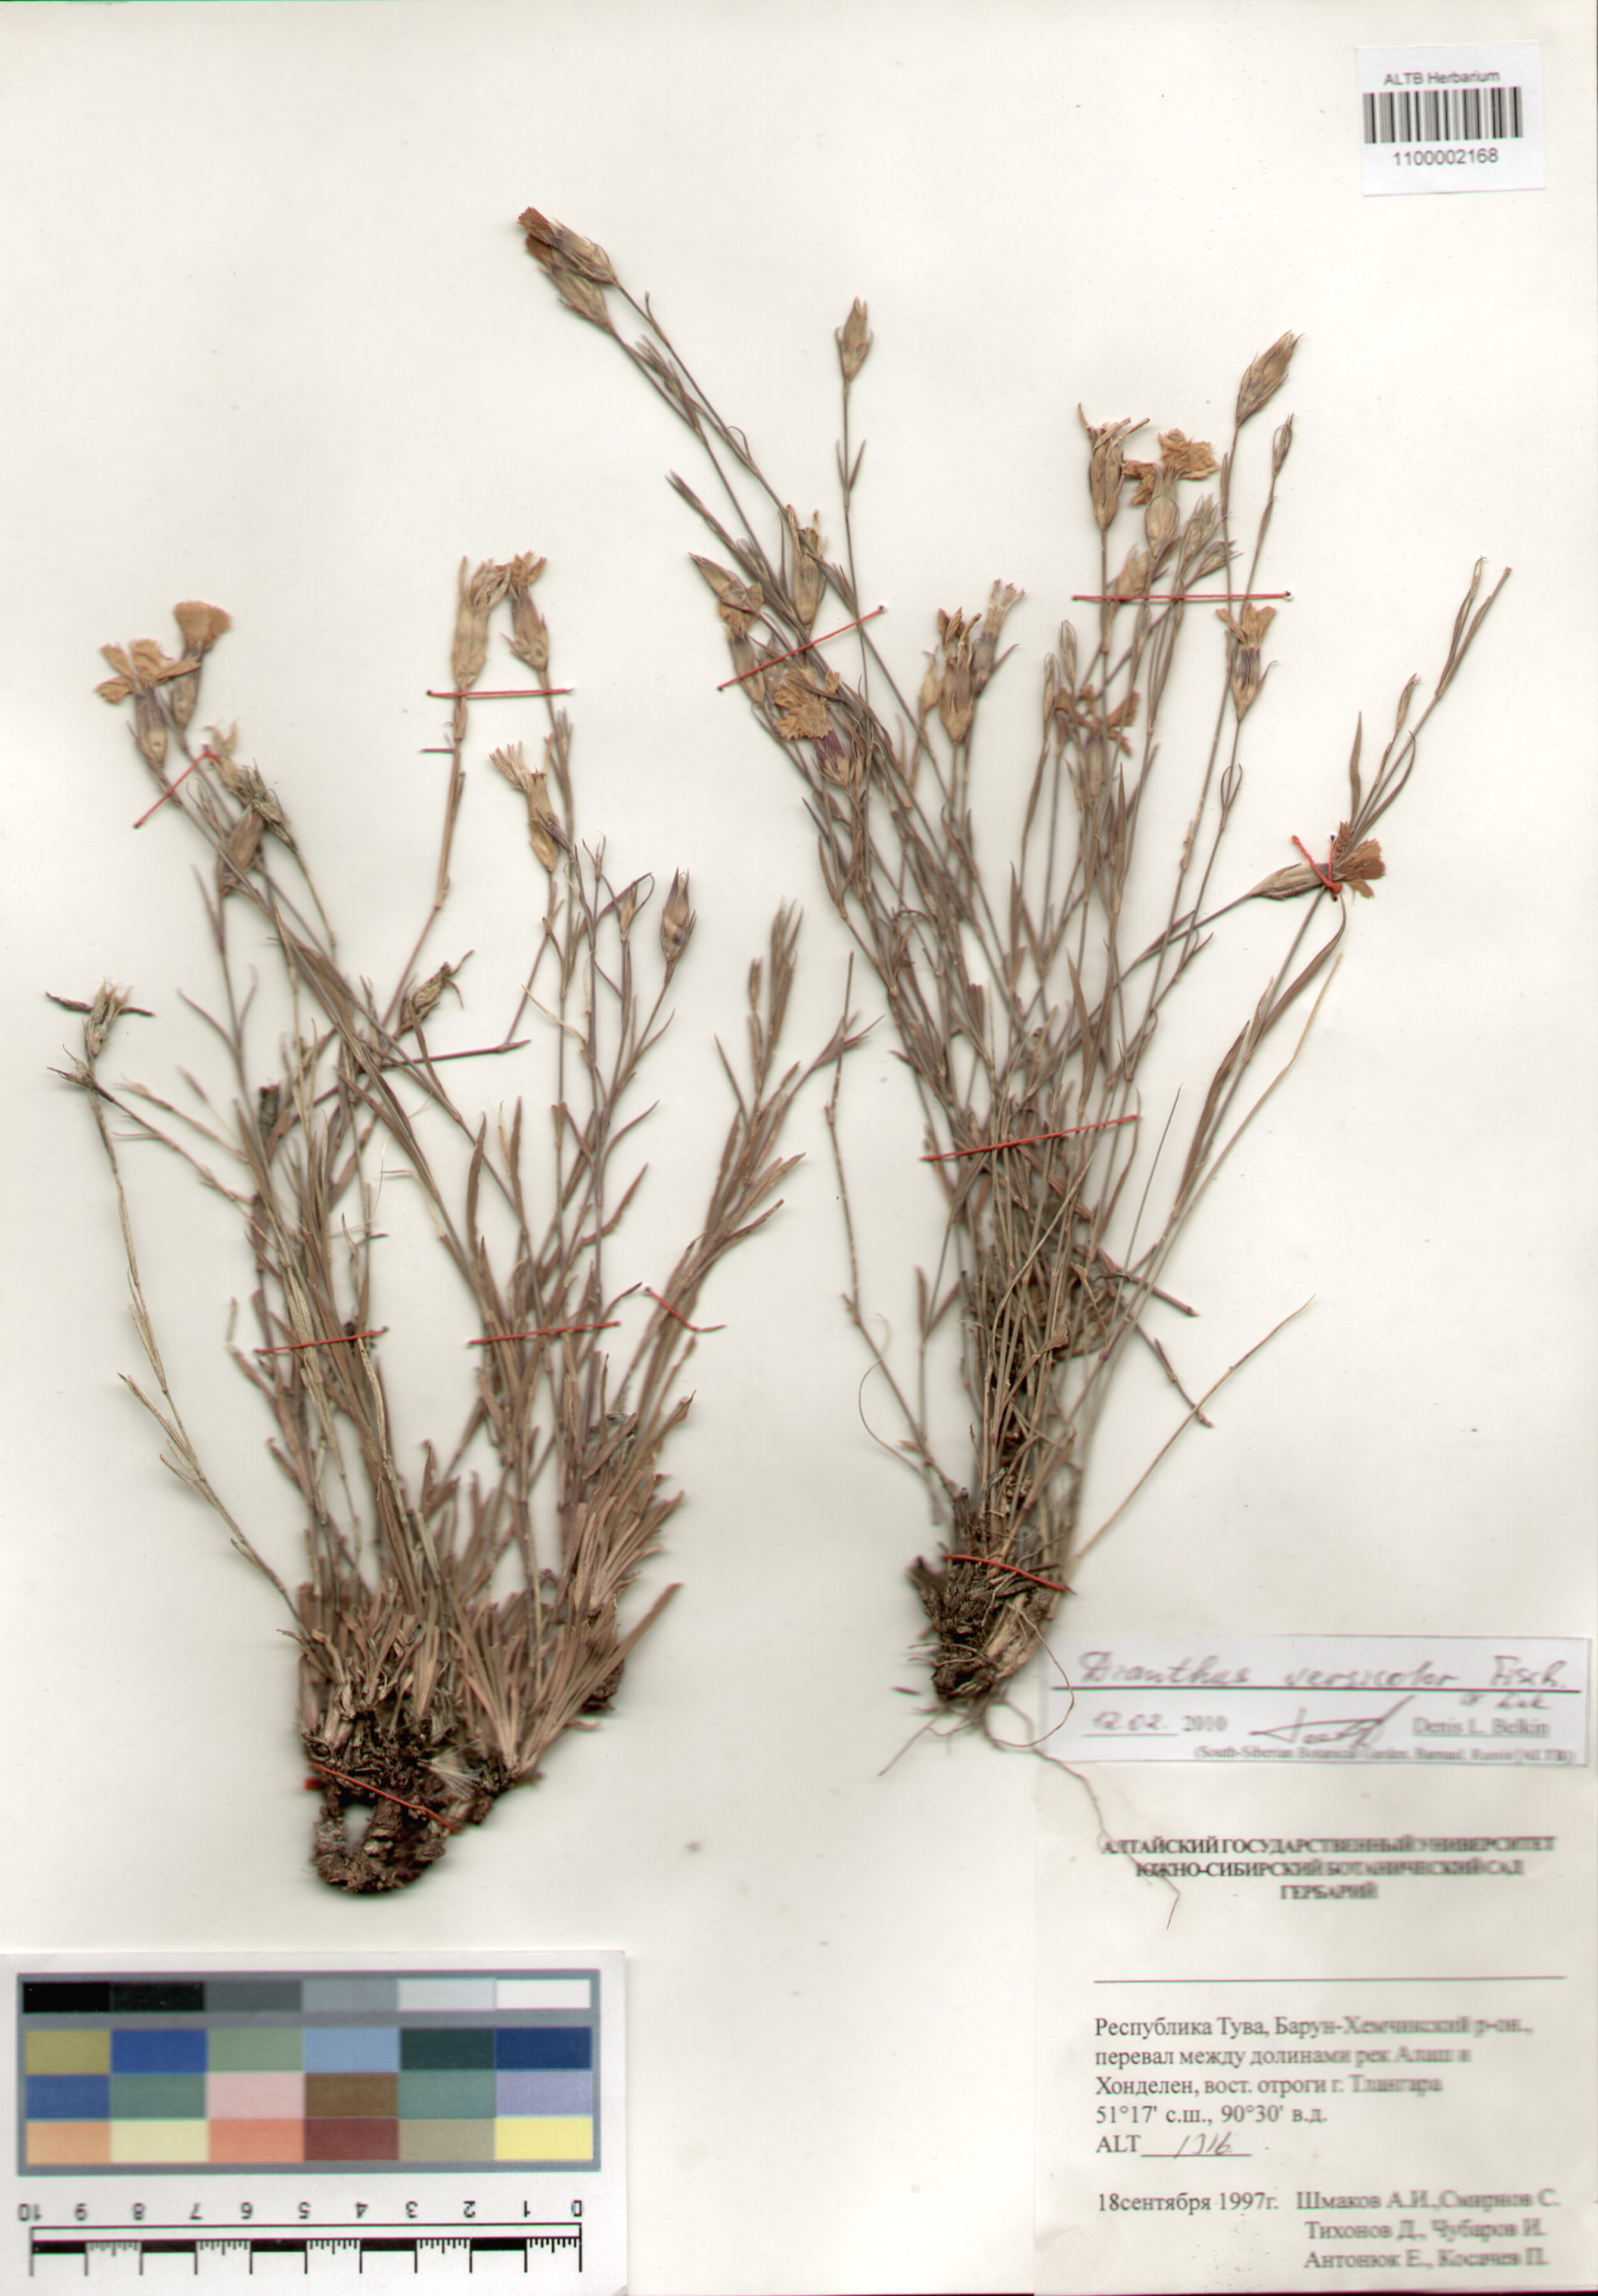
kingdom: Plantae
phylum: Tracheophyta
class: Magnoliopsida
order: Caryophyllales
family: Caryophyllaceae
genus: Dianthus
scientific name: Dianthus chinensis
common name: Rainbow pink
